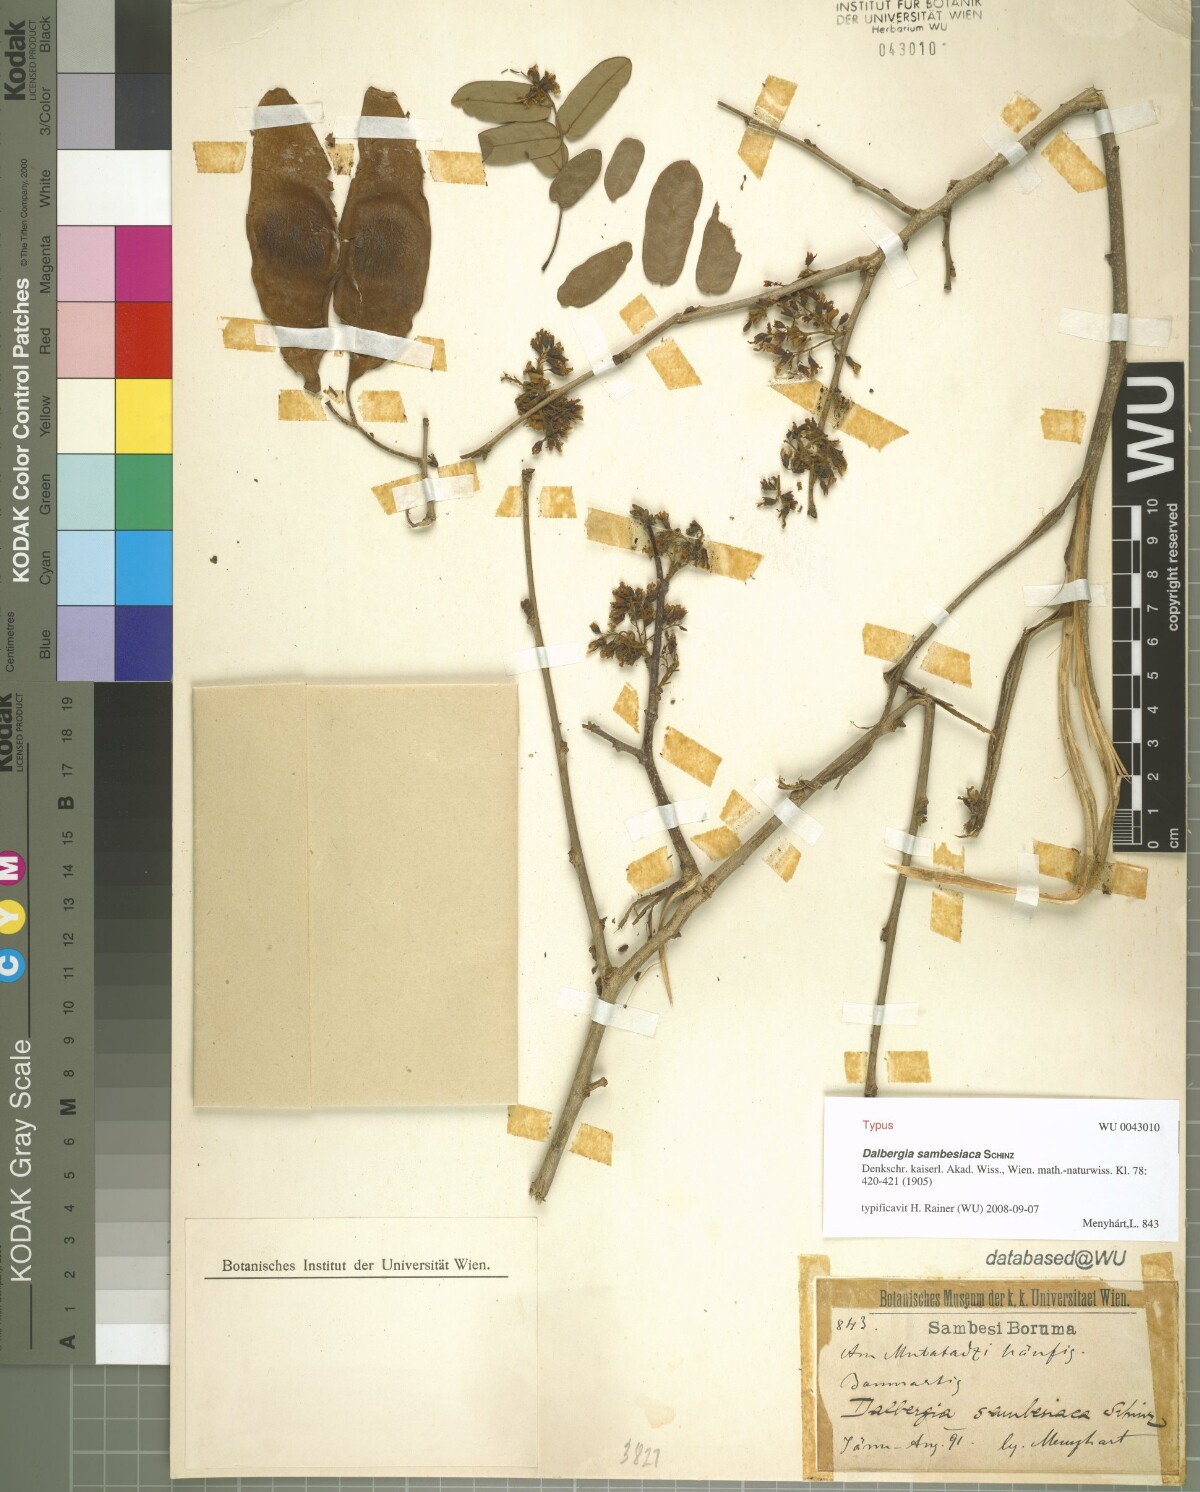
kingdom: Plantae
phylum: Tracheophyta
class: Magnoliopsida
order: Fabales
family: Fabaceae
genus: Dalbergia
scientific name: Dalbergia sambesiaca
